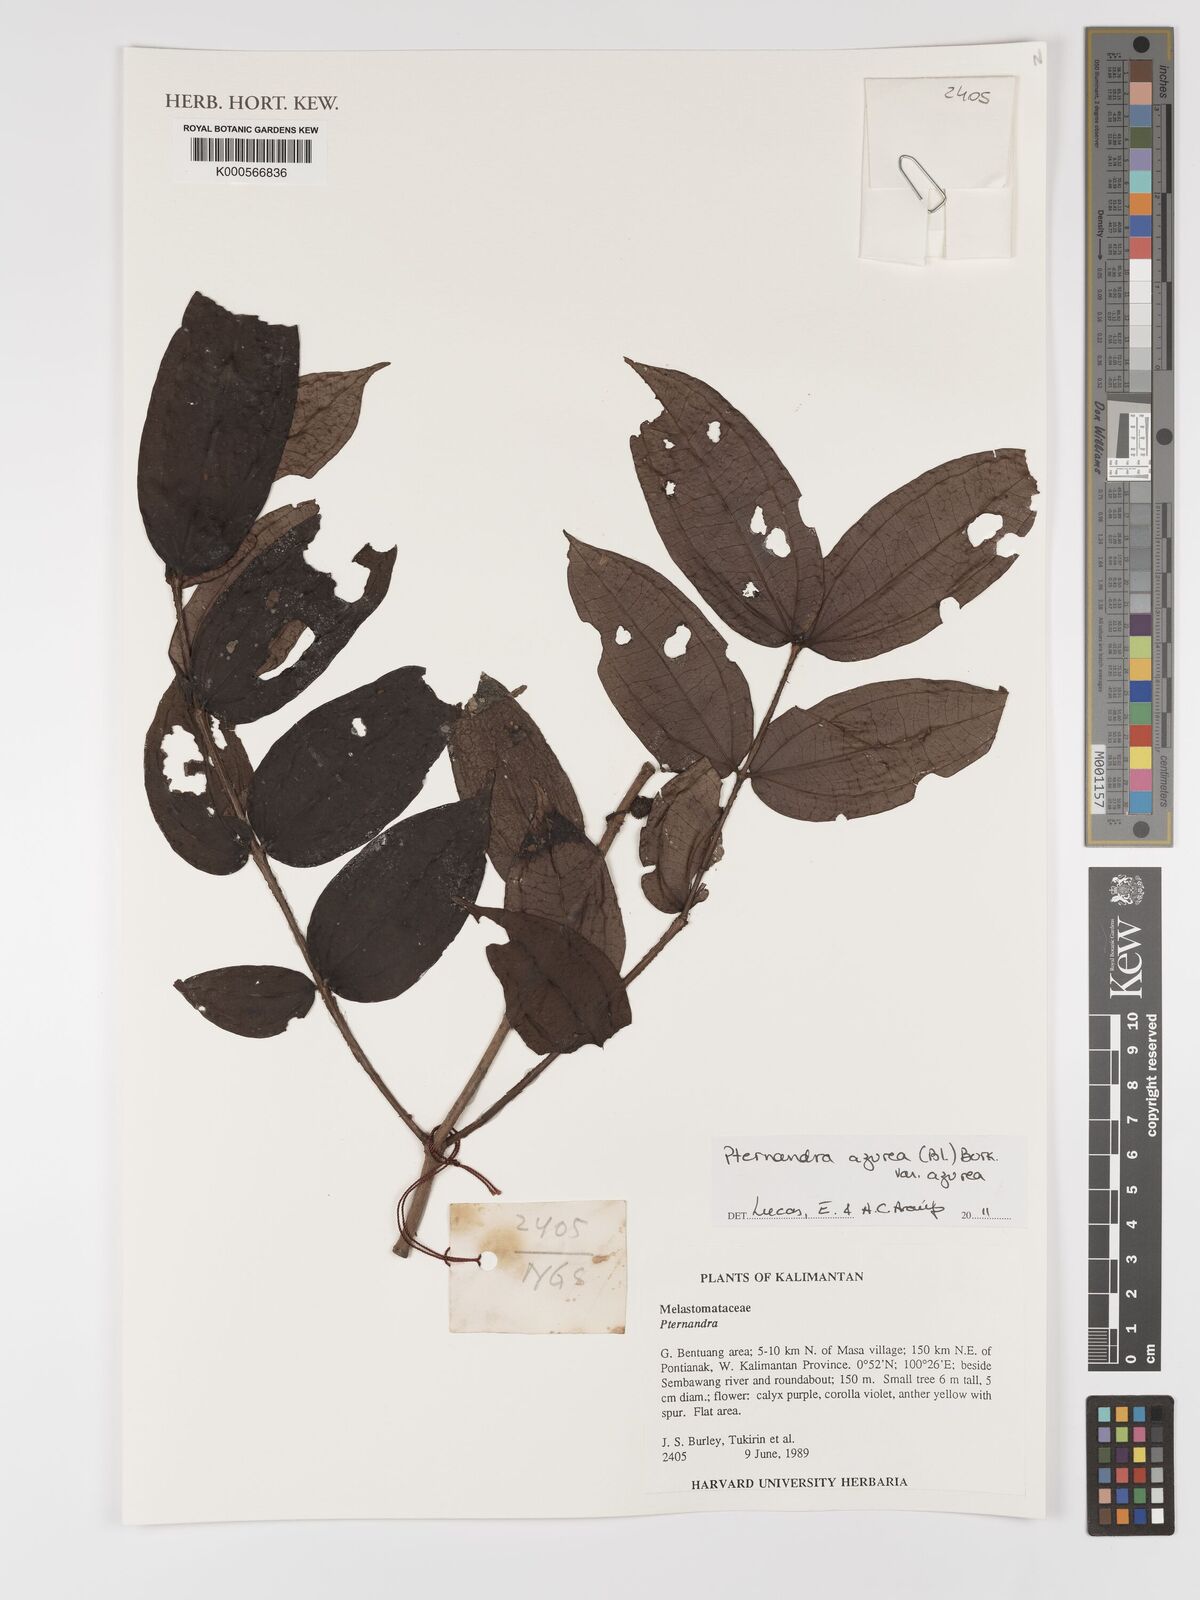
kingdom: Plantae
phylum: Tracheophyta
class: Magnoliopsida
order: Myrtales
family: Melastomataceae
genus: Pternandra
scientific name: Pternandra azurea
